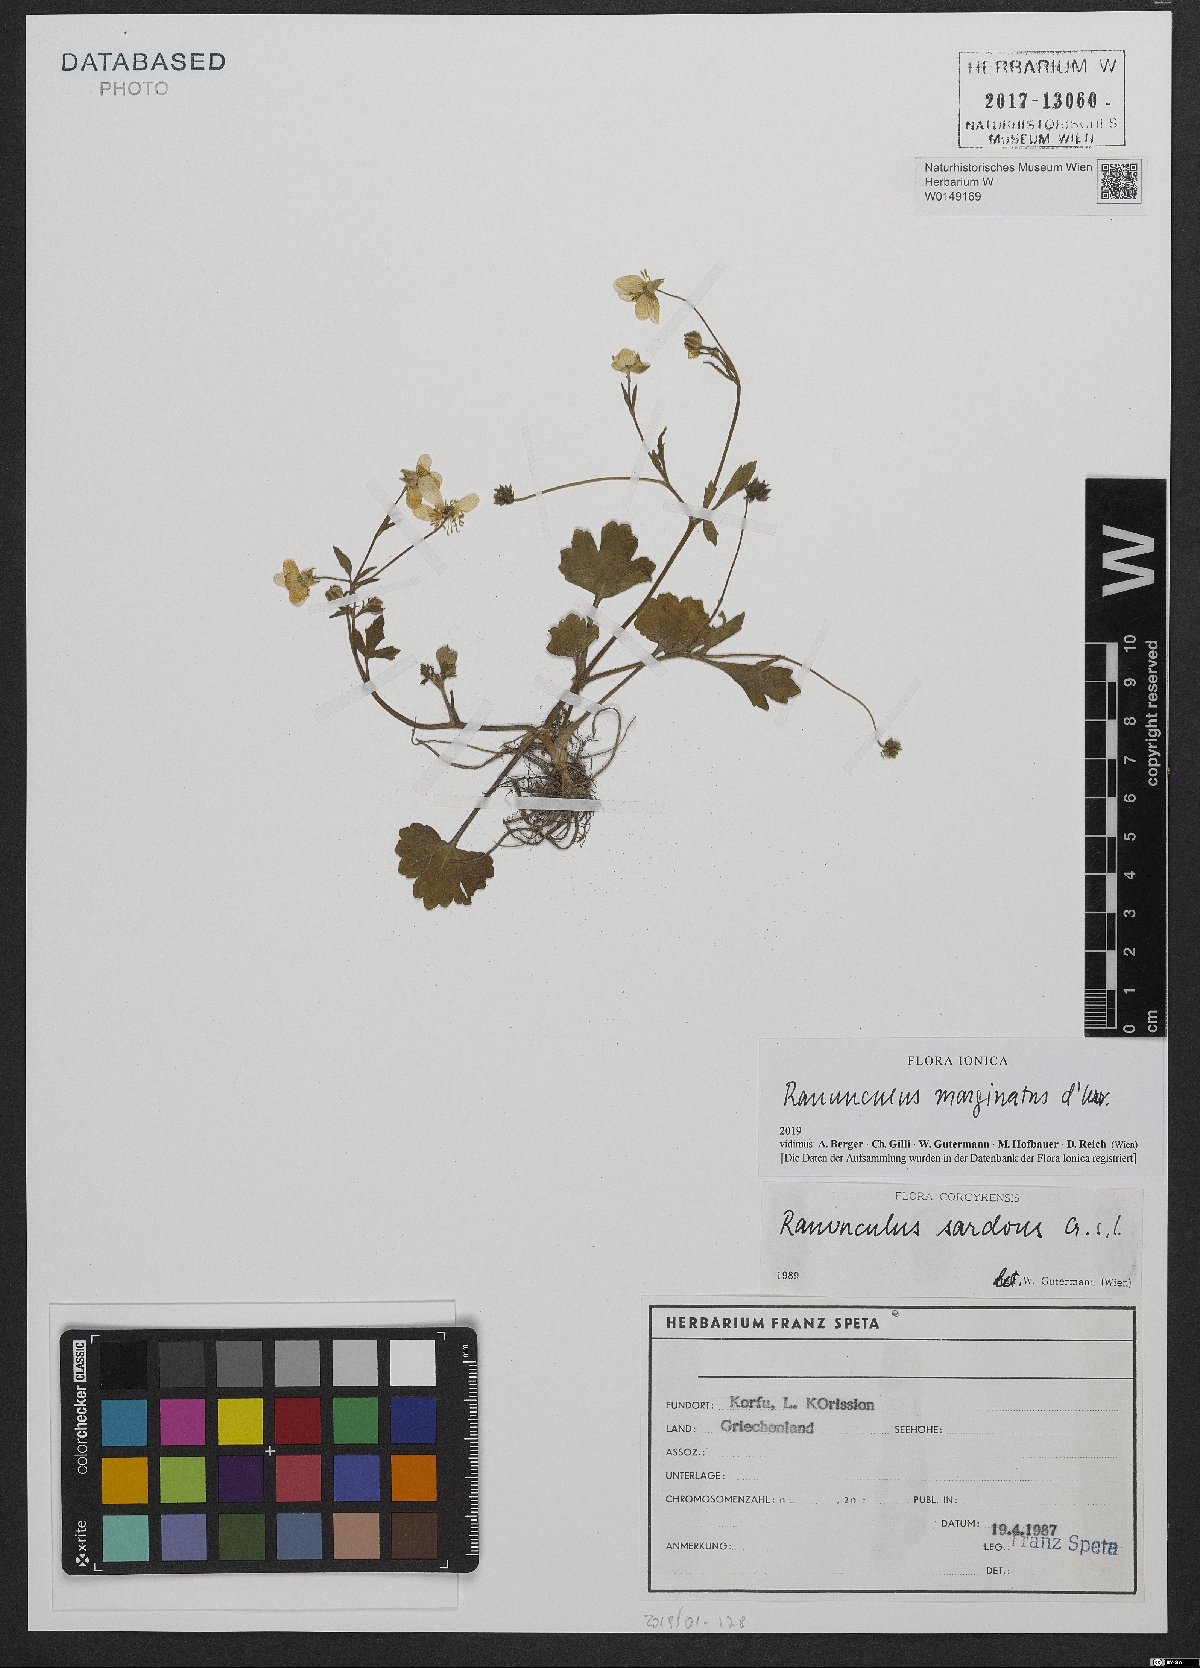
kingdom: Plantae
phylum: Tracheophyta
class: Magnoliopsida
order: Ranunculales
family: Ranunculaceae
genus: Ranunculus
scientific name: Ranunculus sardous
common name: Hairy buttercup
